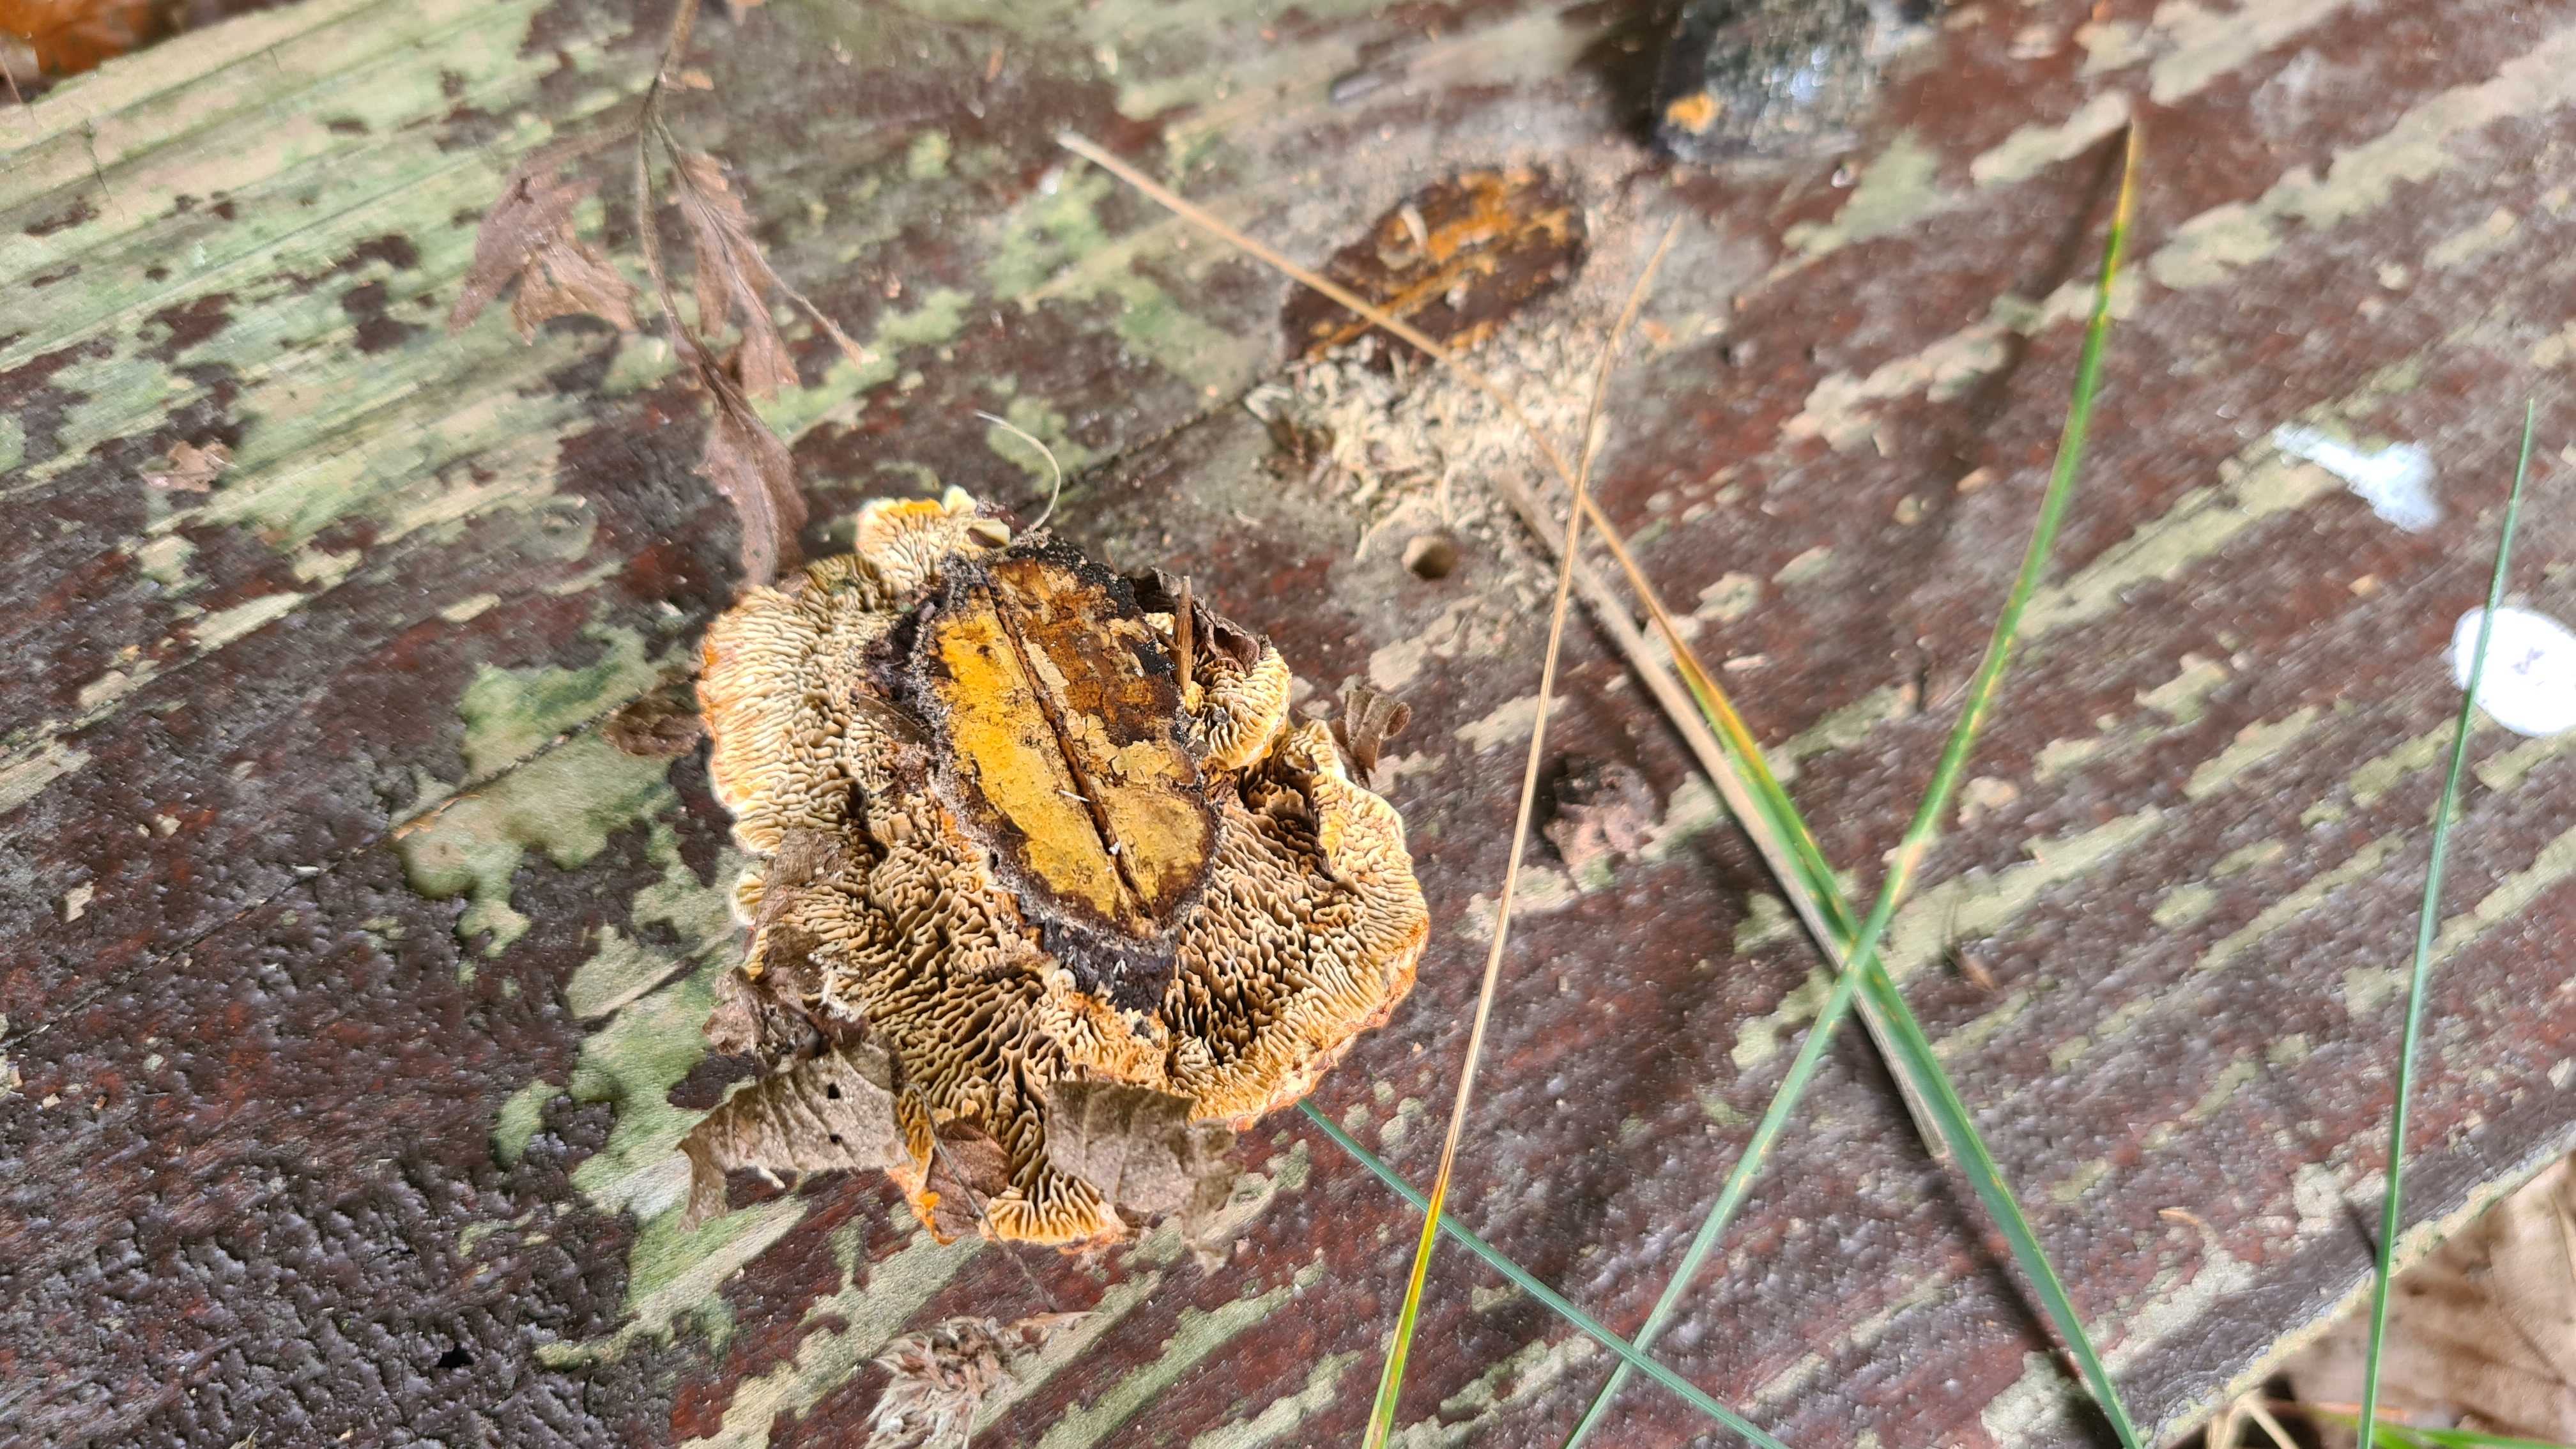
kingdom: Fungi
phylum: Basidiomycota
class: Agaricomycetes
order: Gloeophyllales
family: Gloeophyllaceae
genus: Gloeophyllum
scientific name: Gloeophyllum sepiarium
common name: fyrre-korkhat
